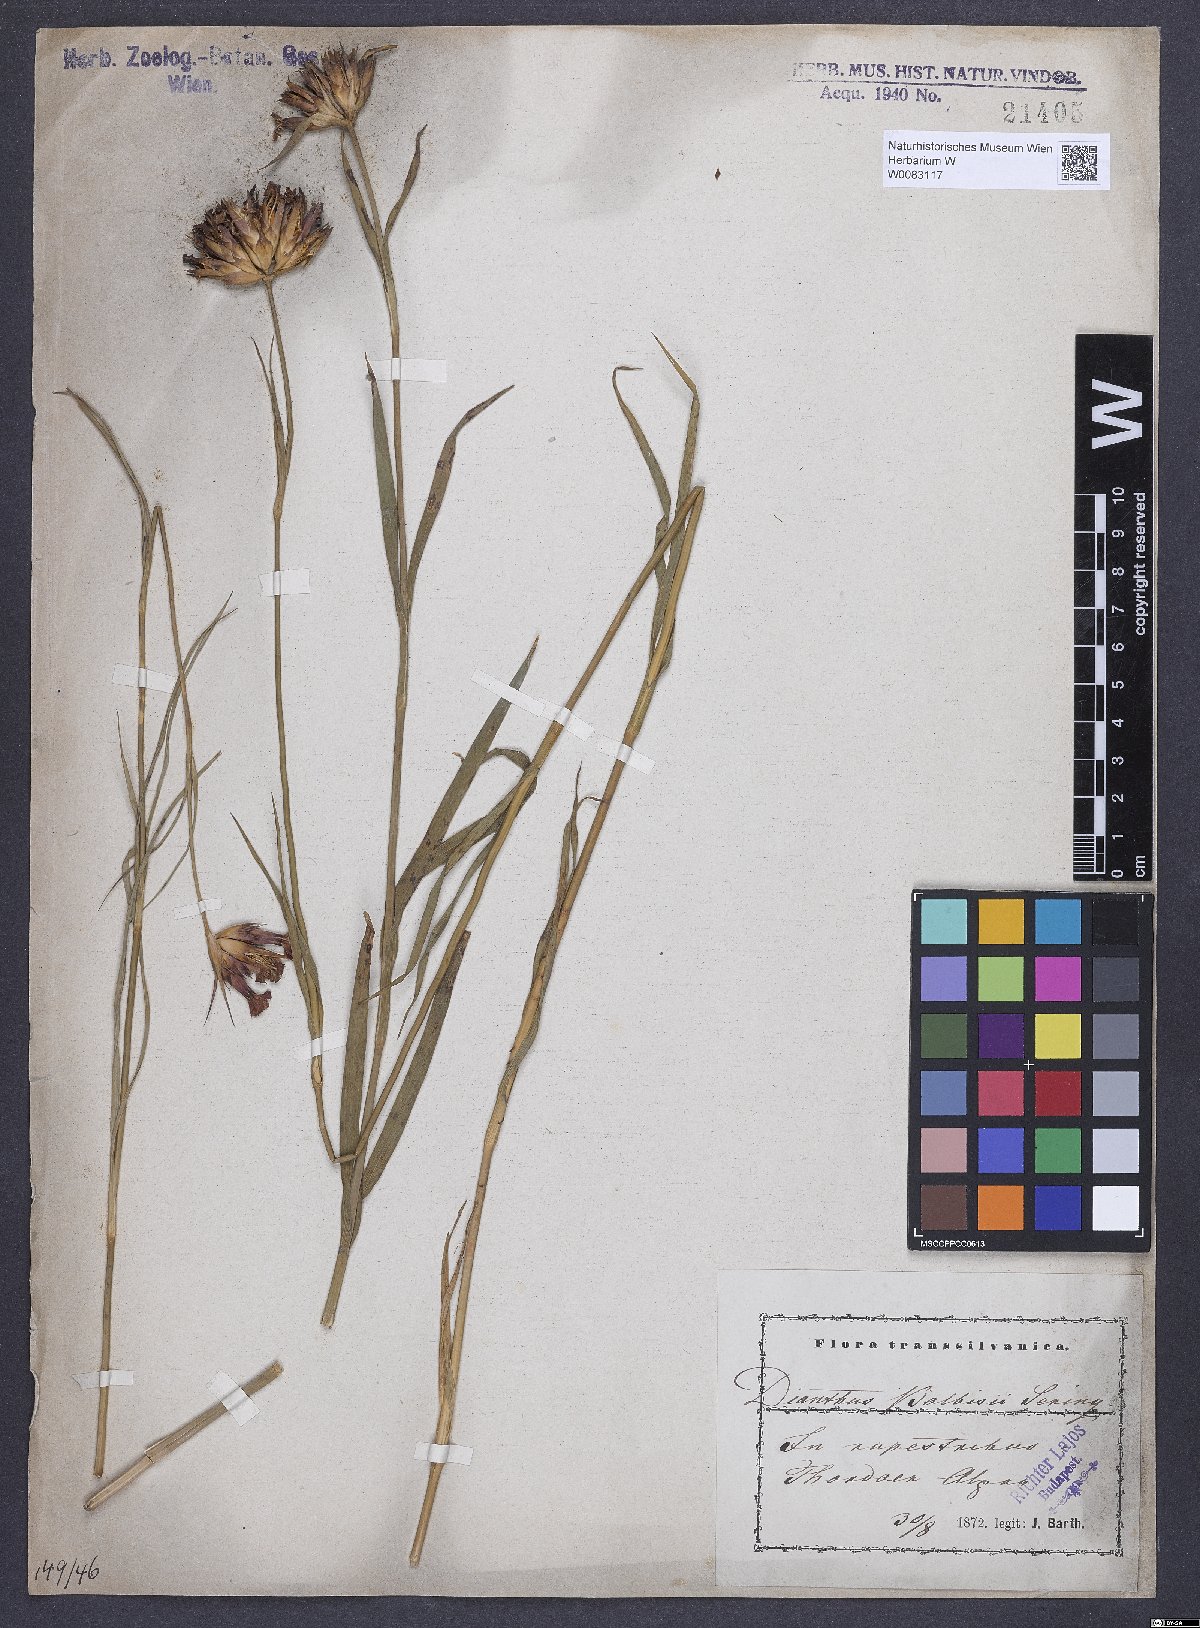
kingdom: Plantae
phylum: Tracheophyta
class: Magnoliopsida
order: Caryophyllales
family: Caryophyllaceae
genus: Dianthus
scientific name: Dianthus crassipes
